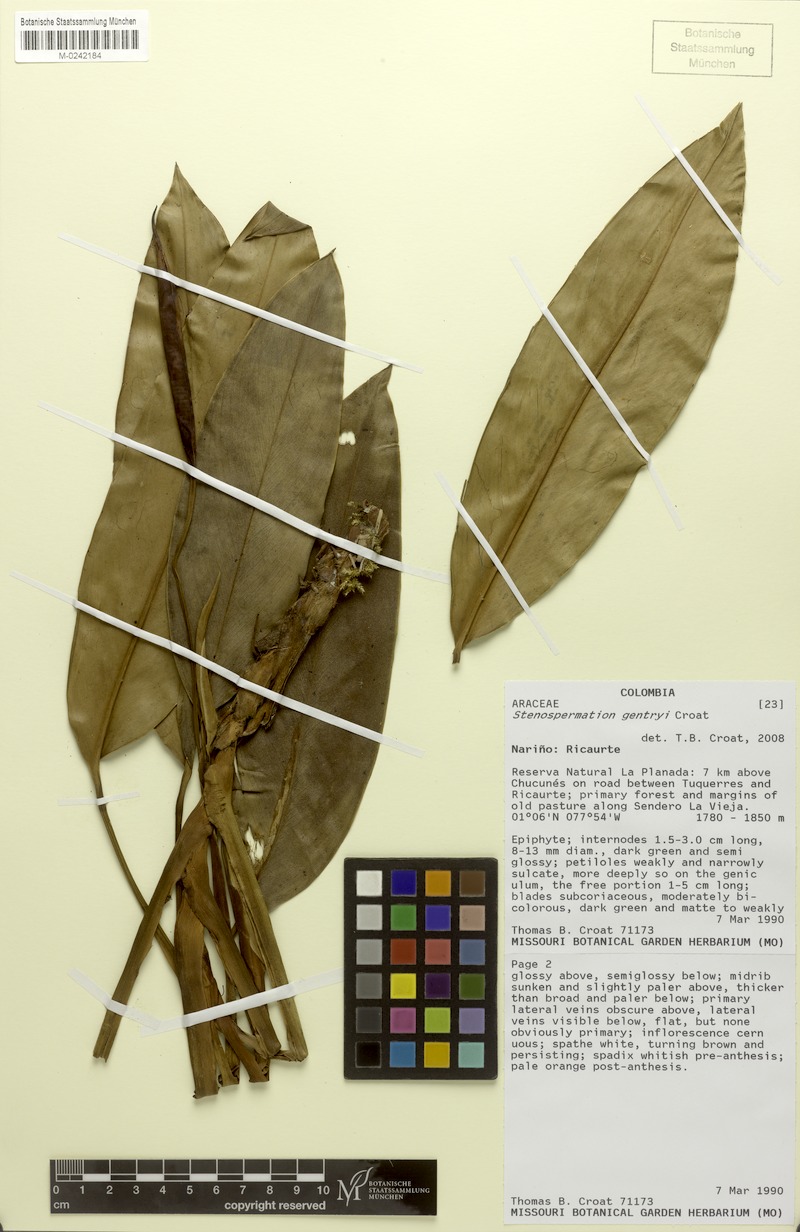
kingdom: Plantae
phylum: Tracheophyta
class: Liliopsida
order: Alismatales
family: Araceae
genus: Stenospermation
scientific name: Stenospermation gentryi
